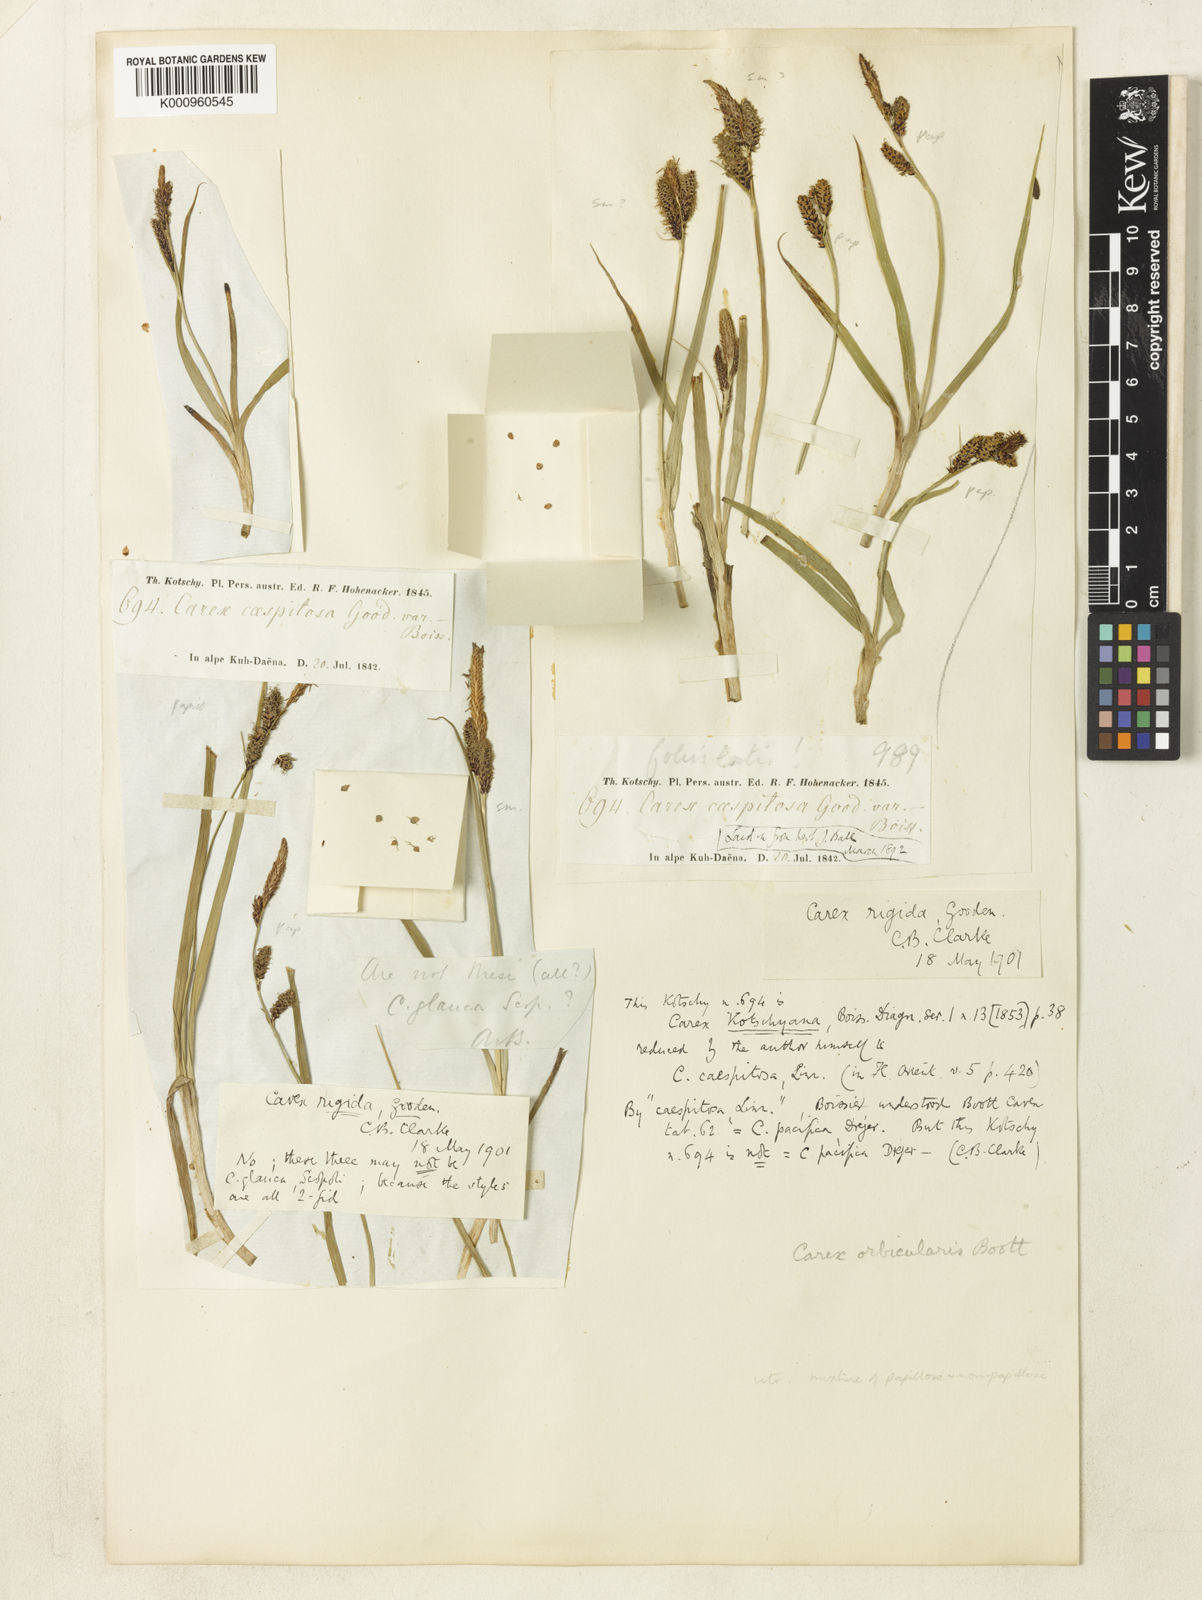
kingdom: Plantae
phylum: Tracheophyta
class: Liliopsida
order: Poales
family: Cyperaceae
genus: Carex
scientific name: Carex orbicularis
